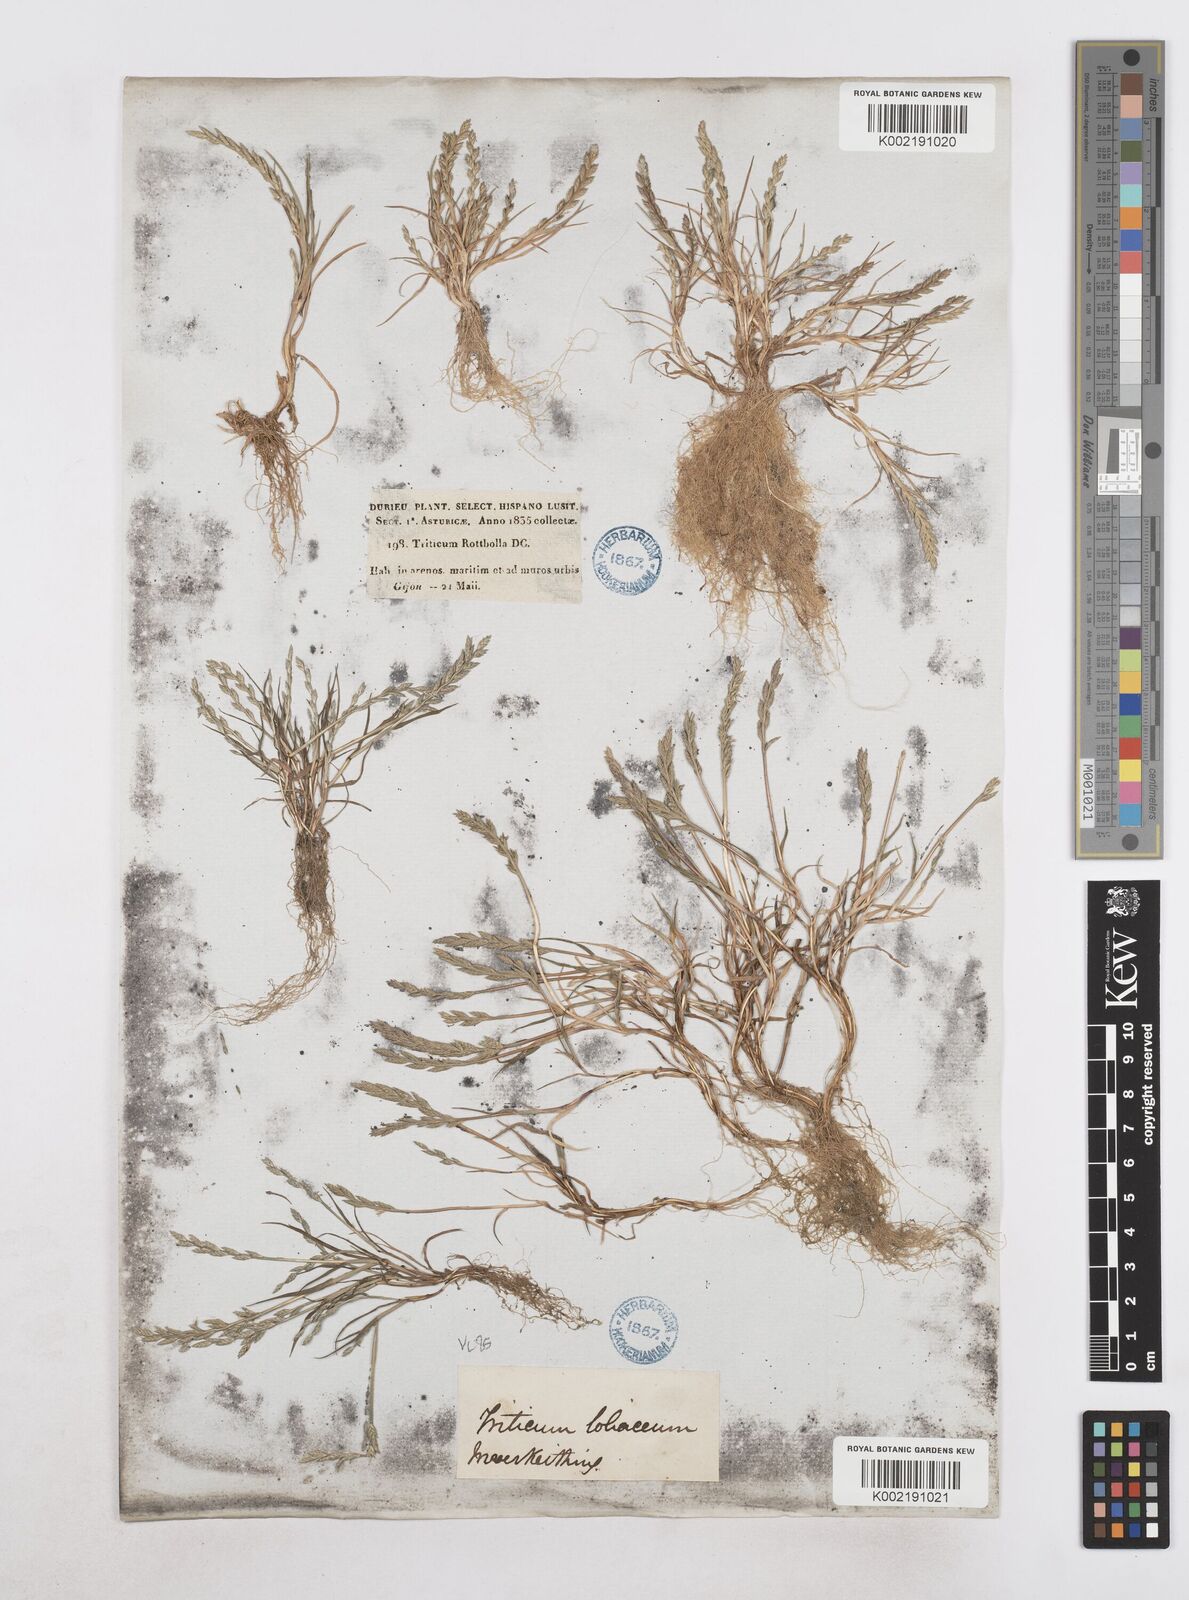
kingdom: Plantae
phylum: Tracheophyta
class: Liliopsida
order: Poales
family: Poaceae
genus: Catapodium
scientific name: Catapodium marinum
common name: Sea fern-grass
